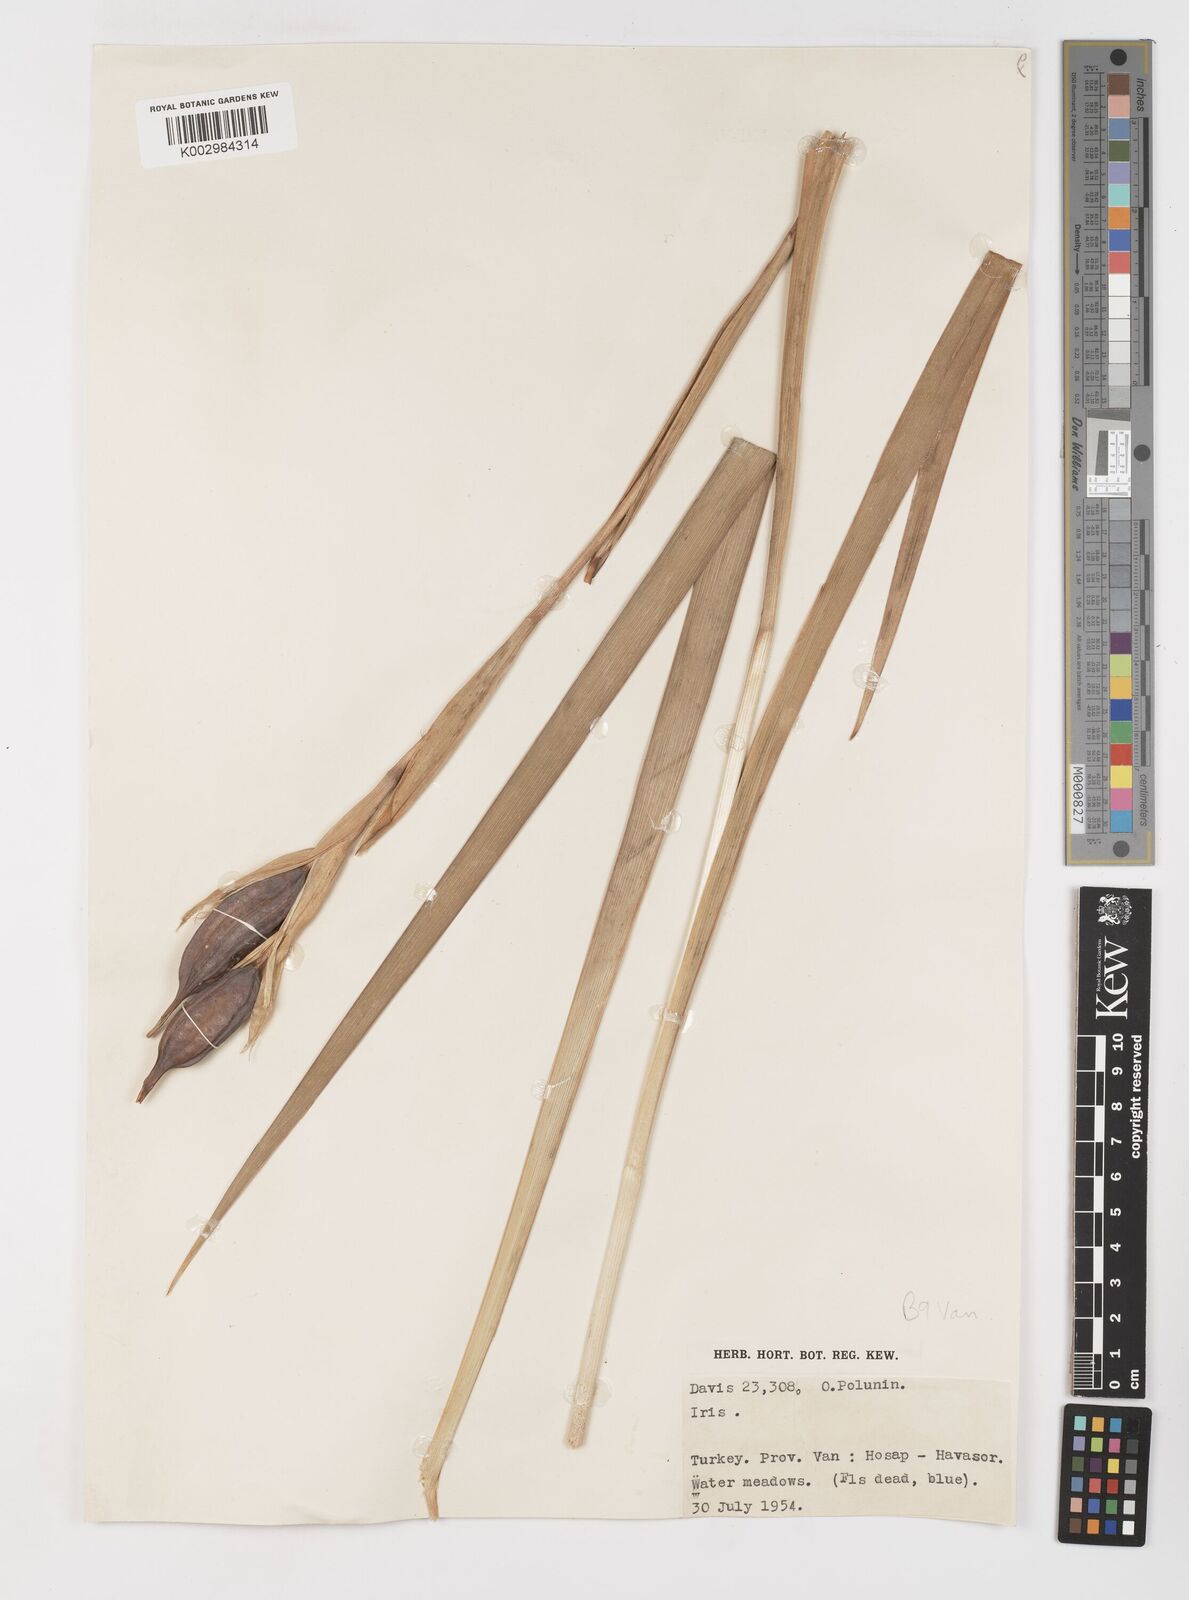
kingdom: Plantae
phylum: Tracheophyta
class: Liliopsida
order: Asparagales
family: Iridaceae
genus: Iris
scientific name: Iris spuria
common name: Blue iris
